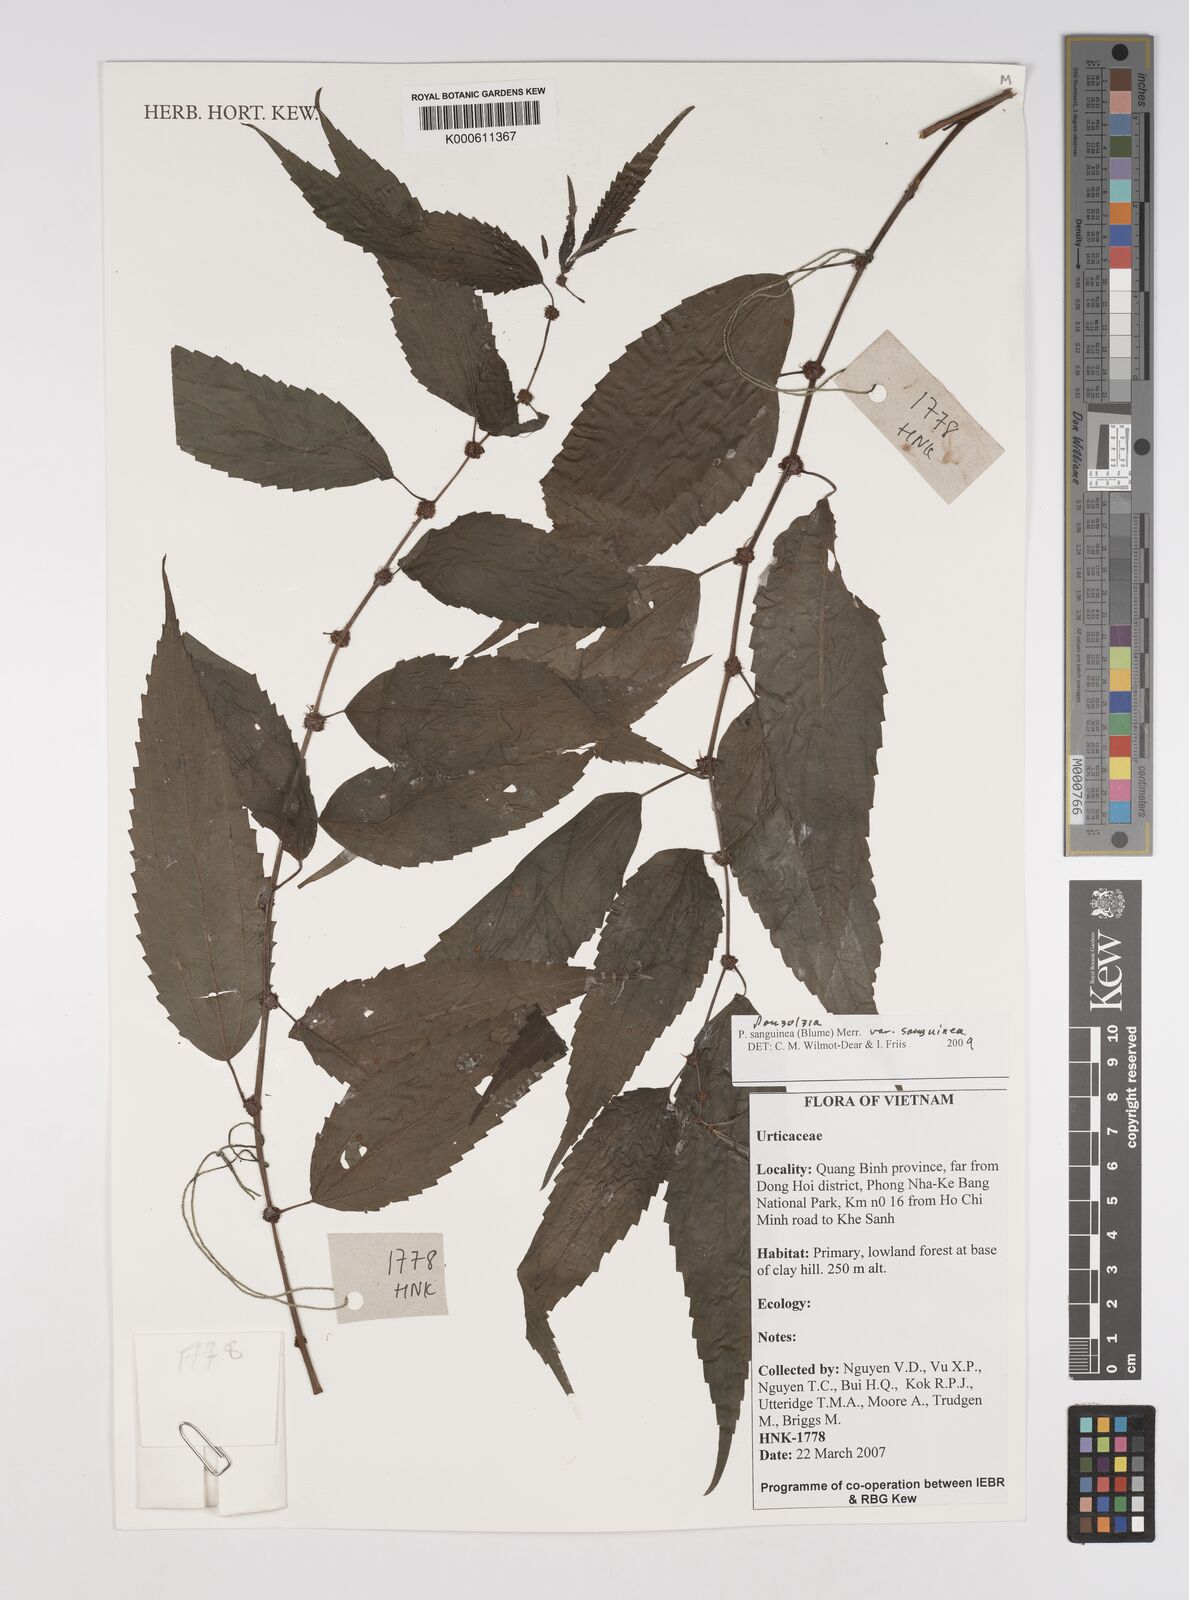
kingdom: Plantae
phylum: Tracheophyta
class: Magnoliopsida
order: Rosales
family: Urticaceae
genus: Pouzolzia
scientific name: Pouzolzia sanguinea
